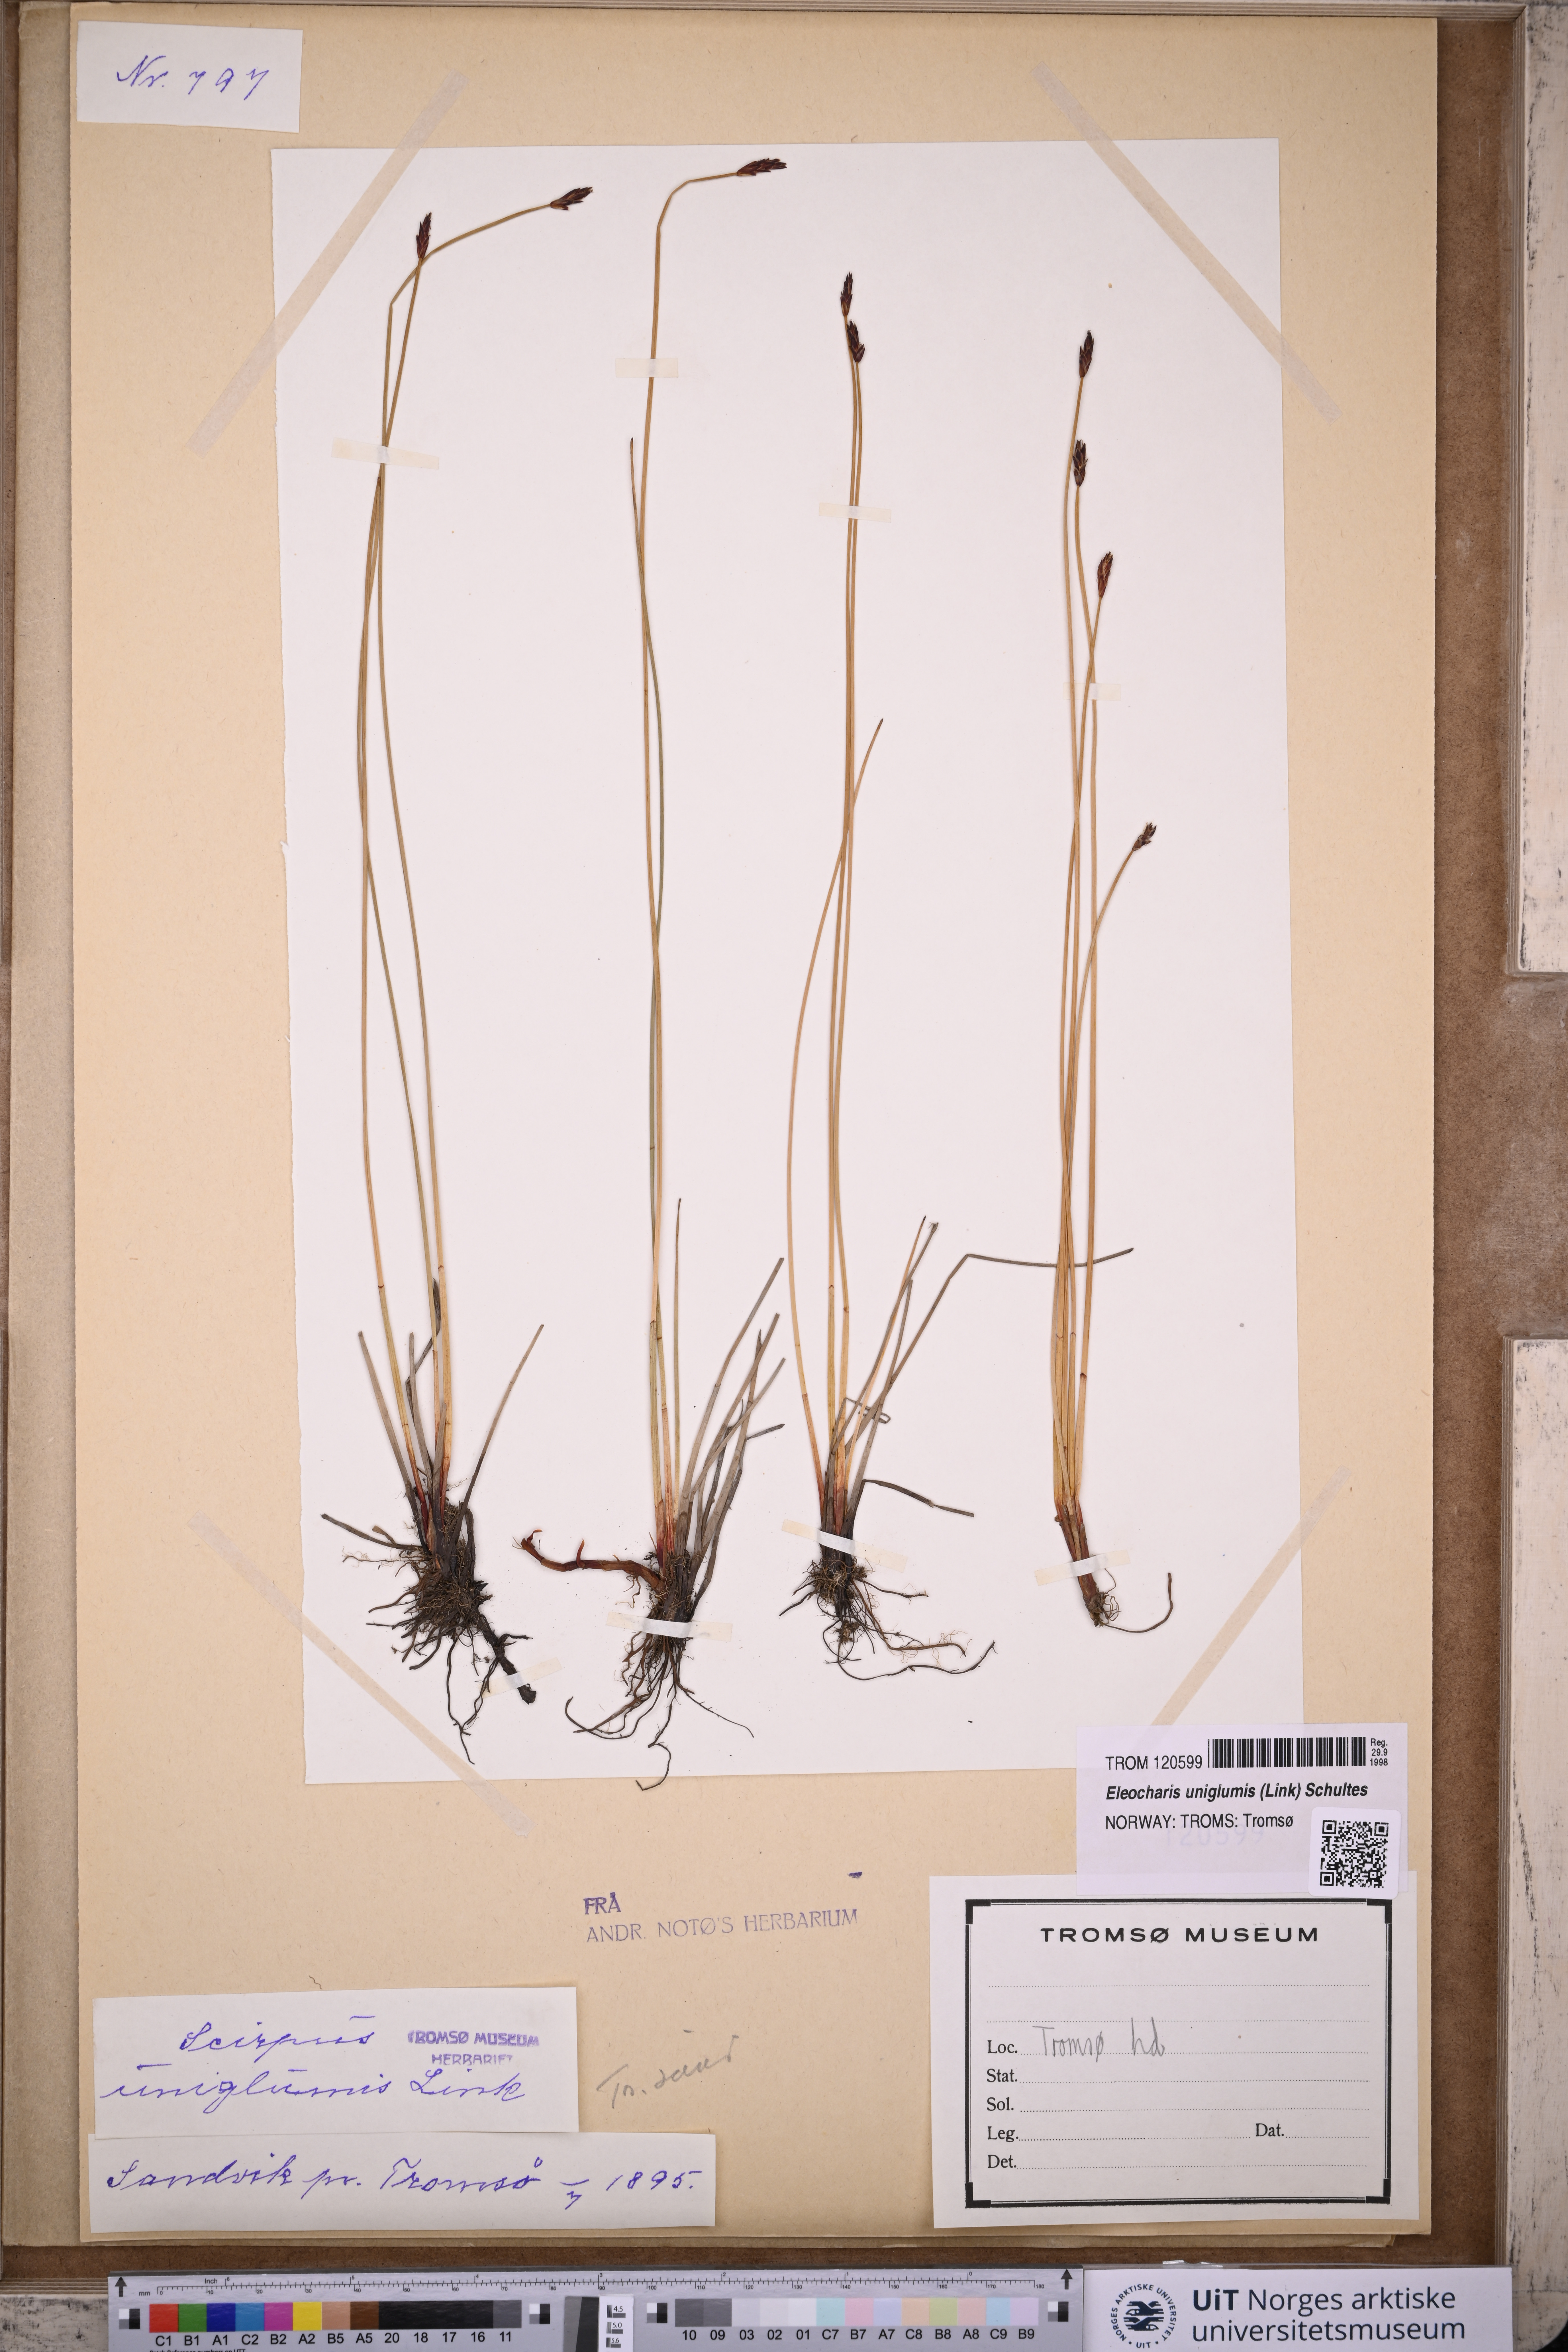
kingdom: Plantae
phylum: Tracheophyta
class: Liliopsida
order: Poales
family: Cyperaceae
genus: Eleocharis
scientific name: Eleocharis uniglumis
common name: Slender spike-rush
